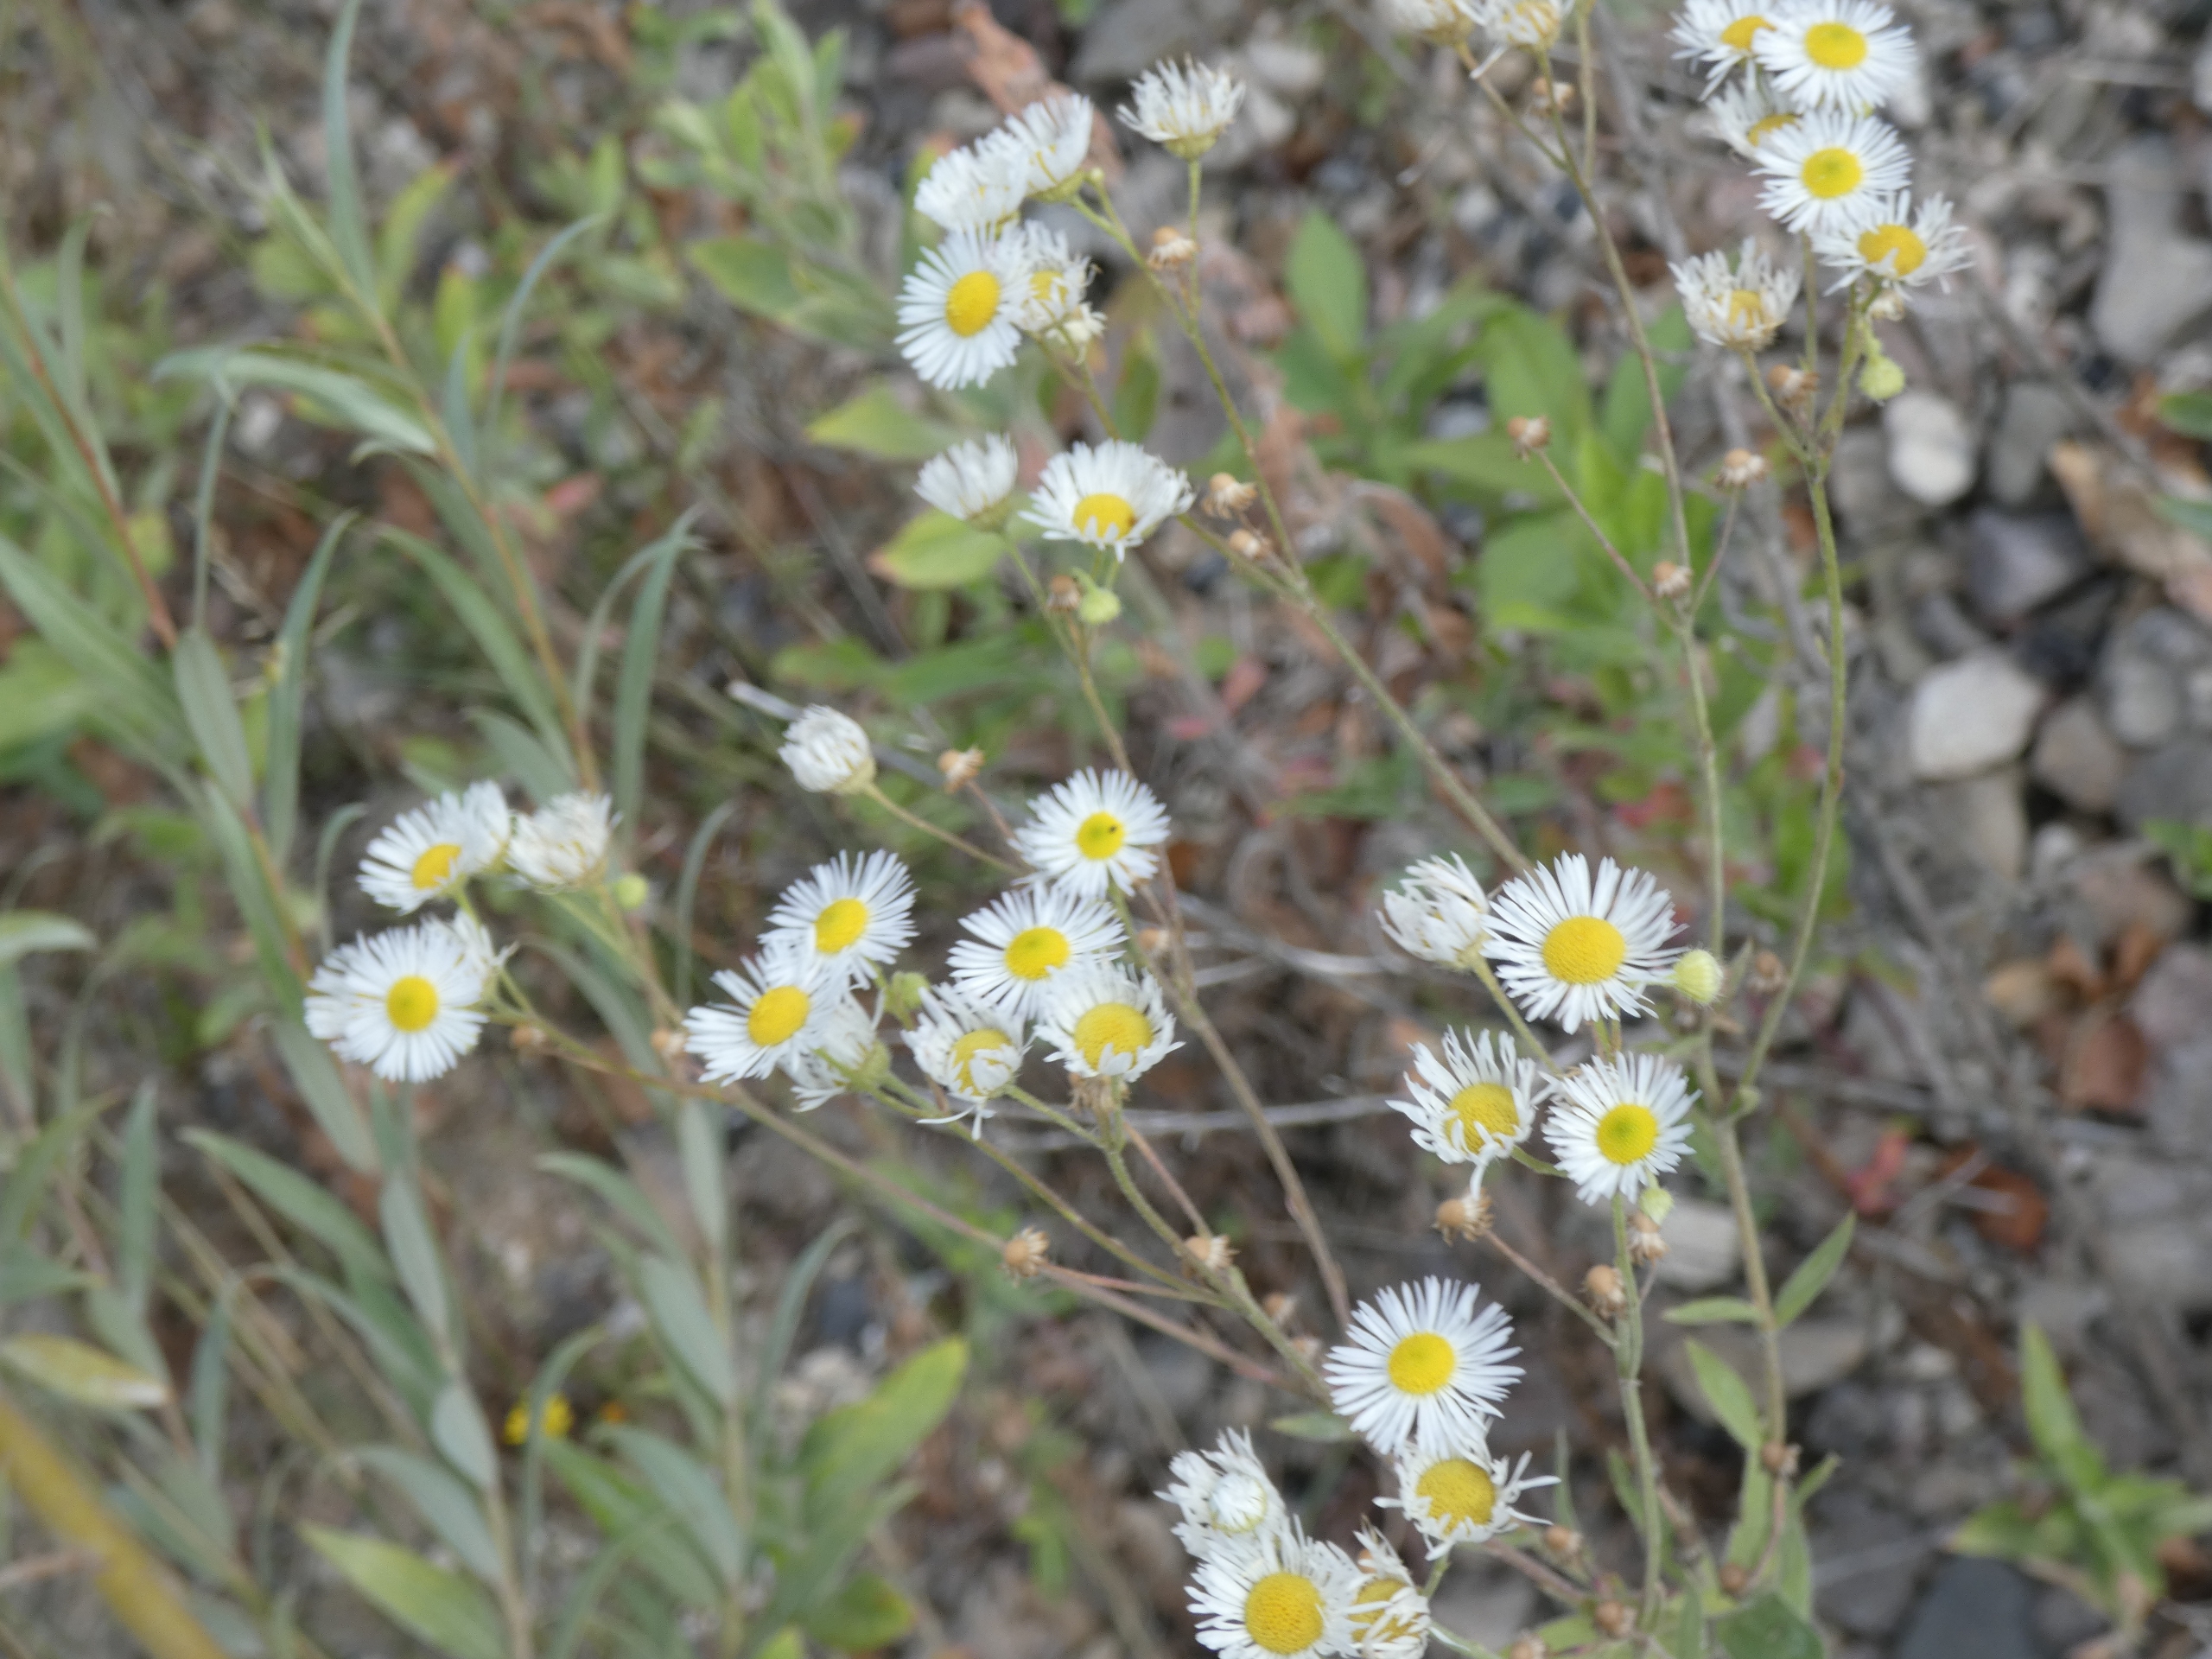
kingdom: Plantae
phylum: Tracheophyta
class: Magnoliopsida
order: Asterales
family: Asteraceae
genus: Erigeron
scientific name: Erigeron annuus
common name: Smalstråle
